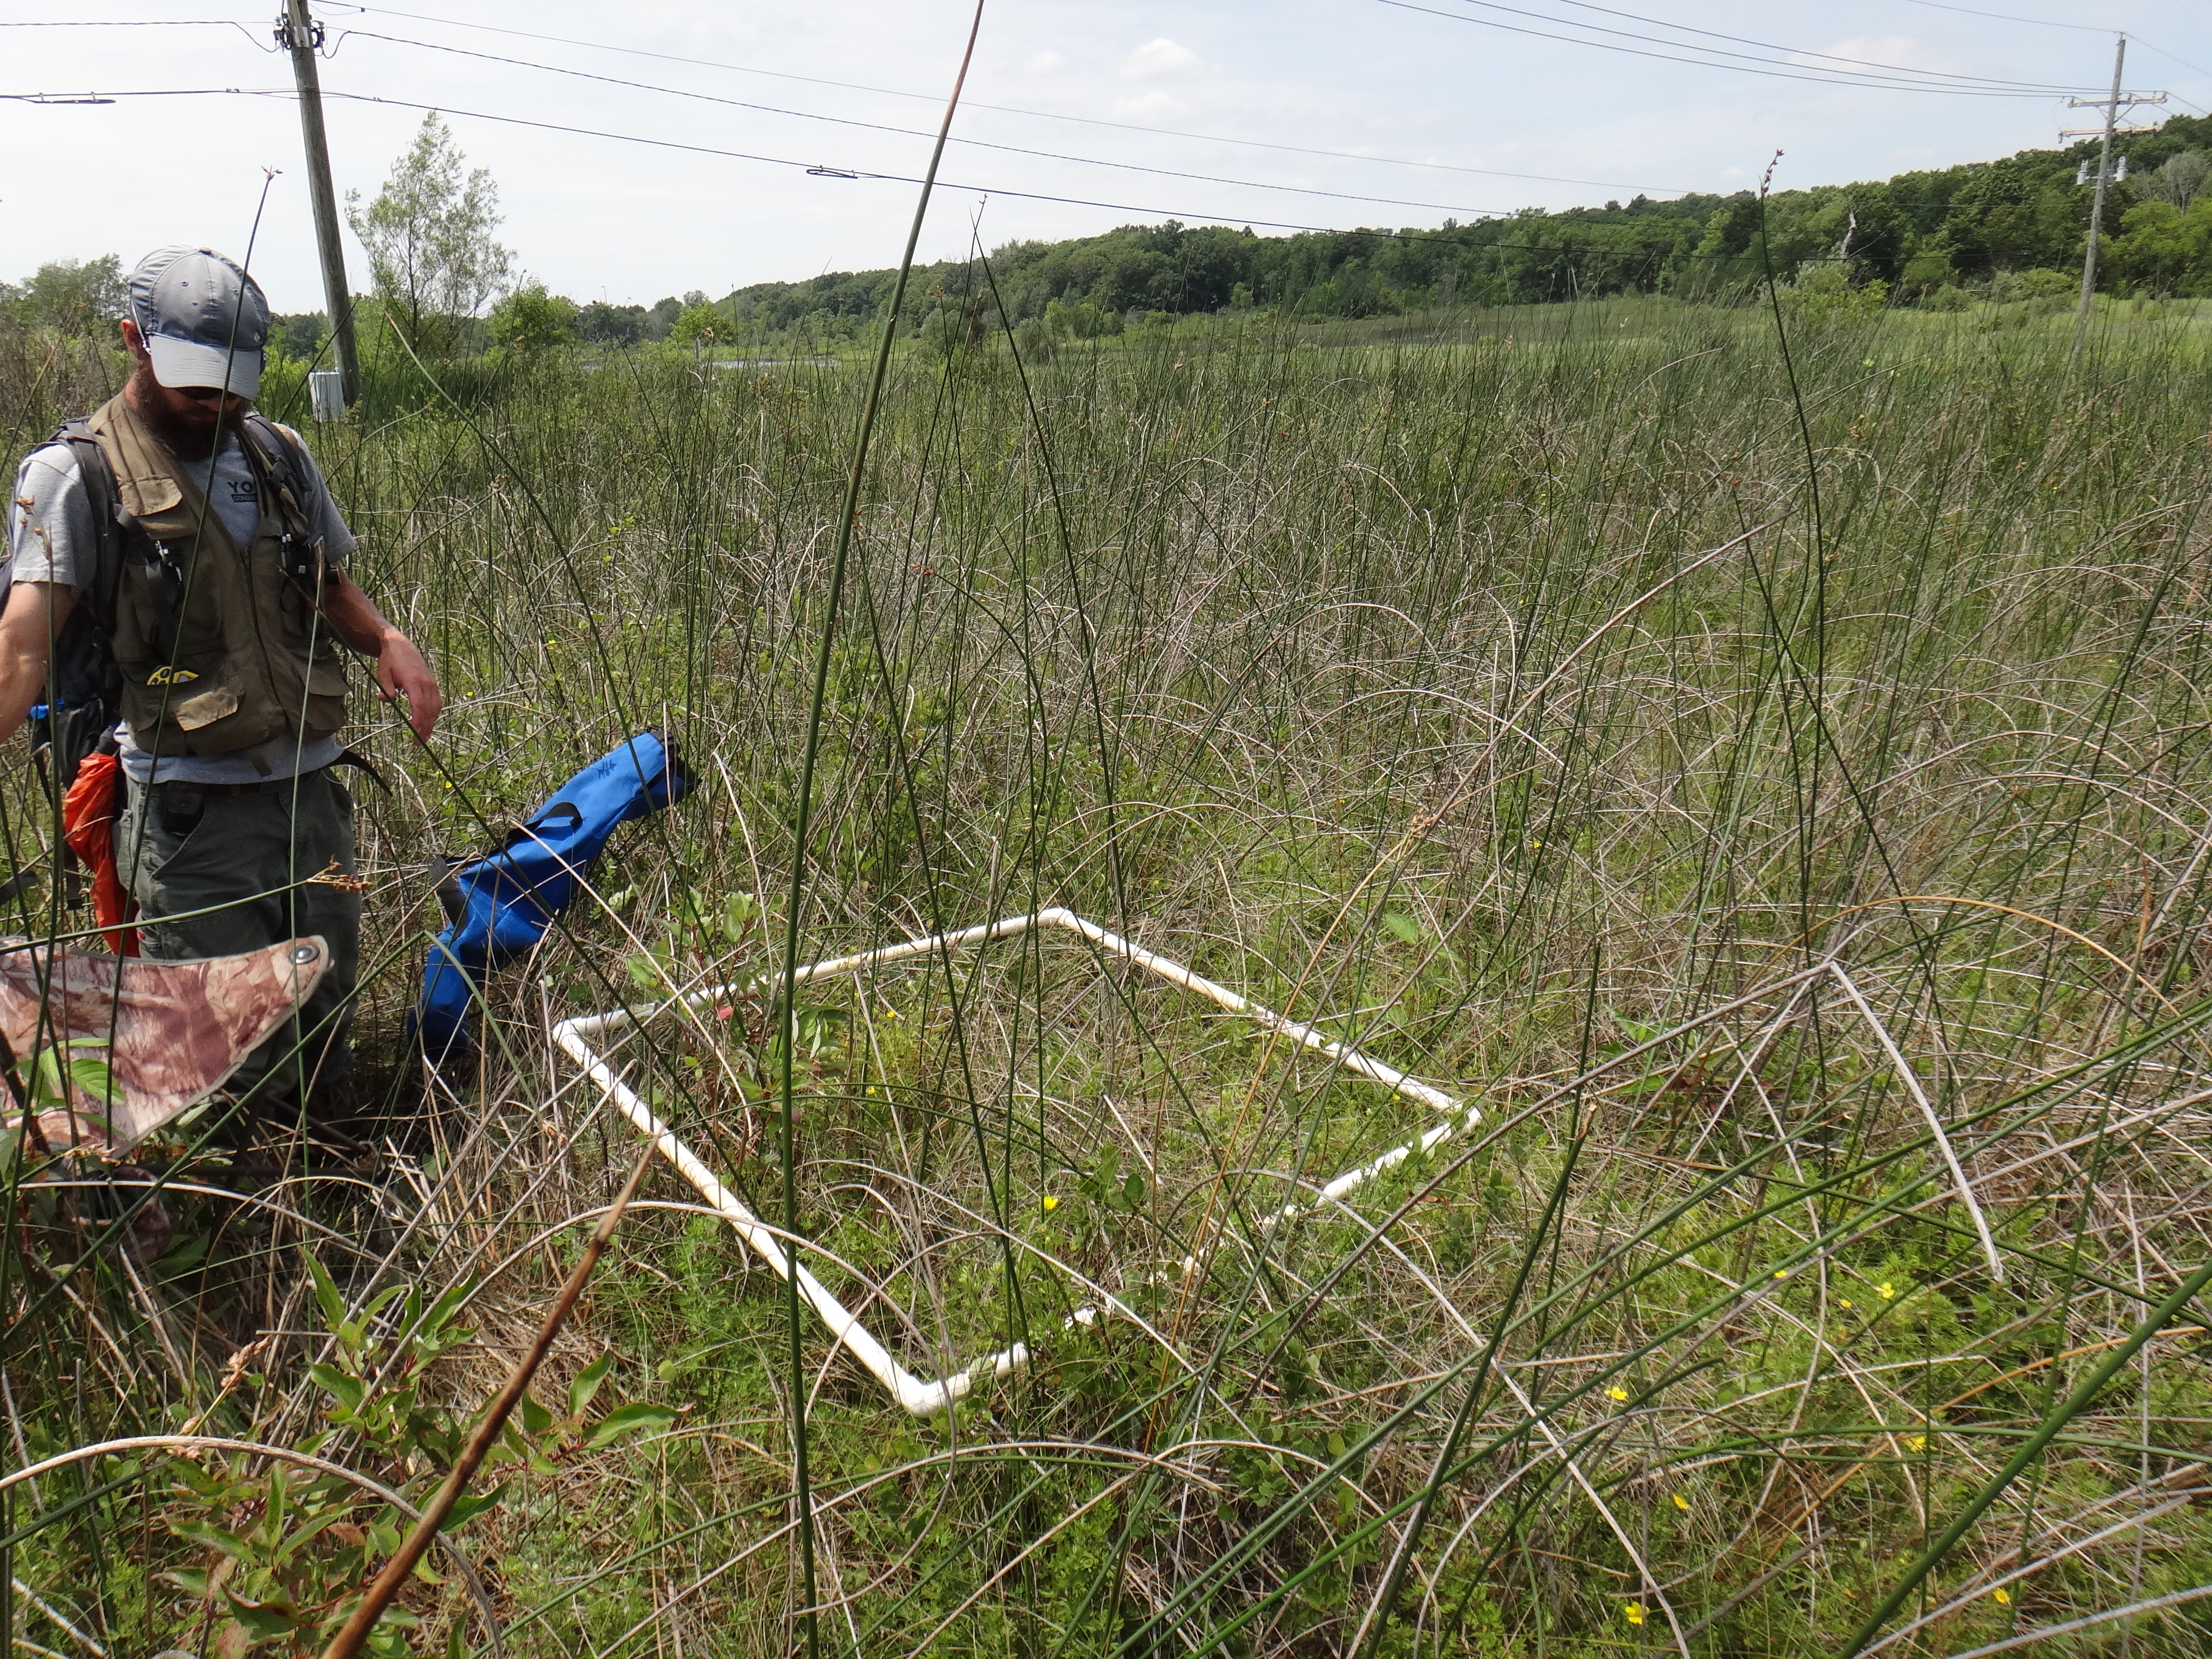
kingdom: Plantae
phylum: Tracheophyta
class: Magnoliopsida
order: Fagales
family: Betulaceae
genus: Betula
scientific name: Betula pumila
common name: Bog birch
